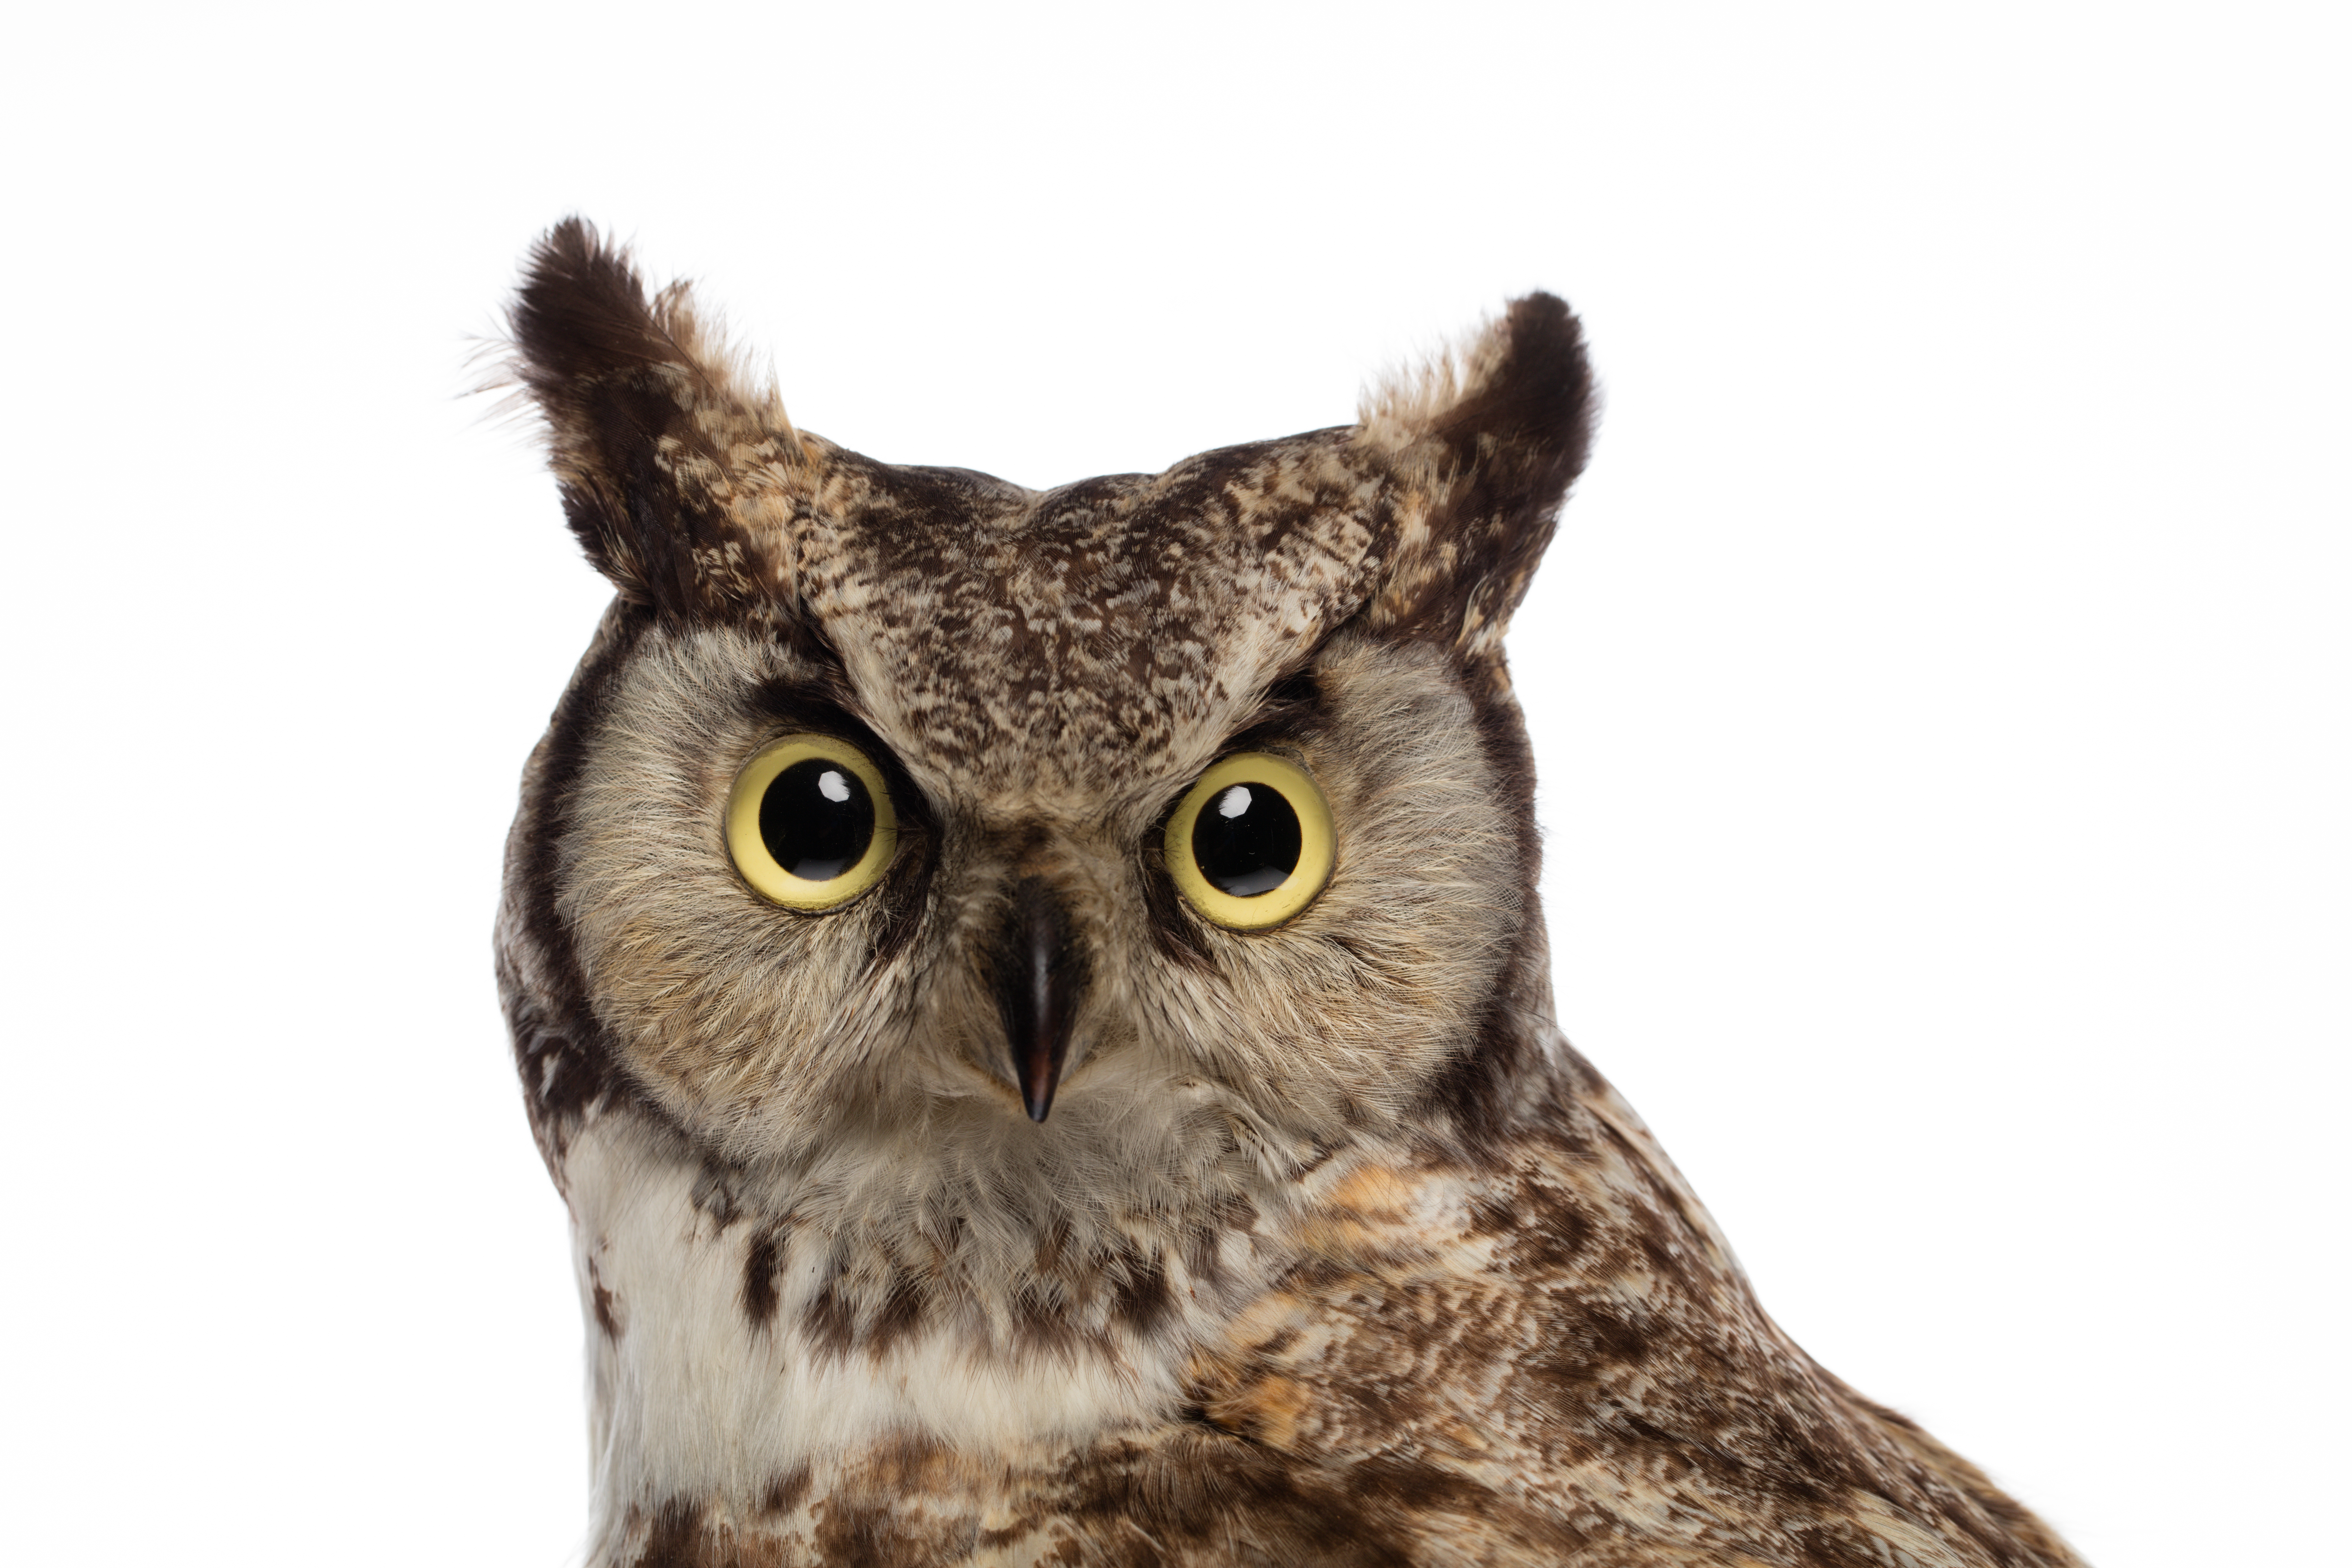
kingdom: Animalia
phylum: Chordata
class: Aves
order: Strigiformes
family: Strigidae
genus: Bubo
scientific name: Bubo virginianus
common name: Great horned owl
